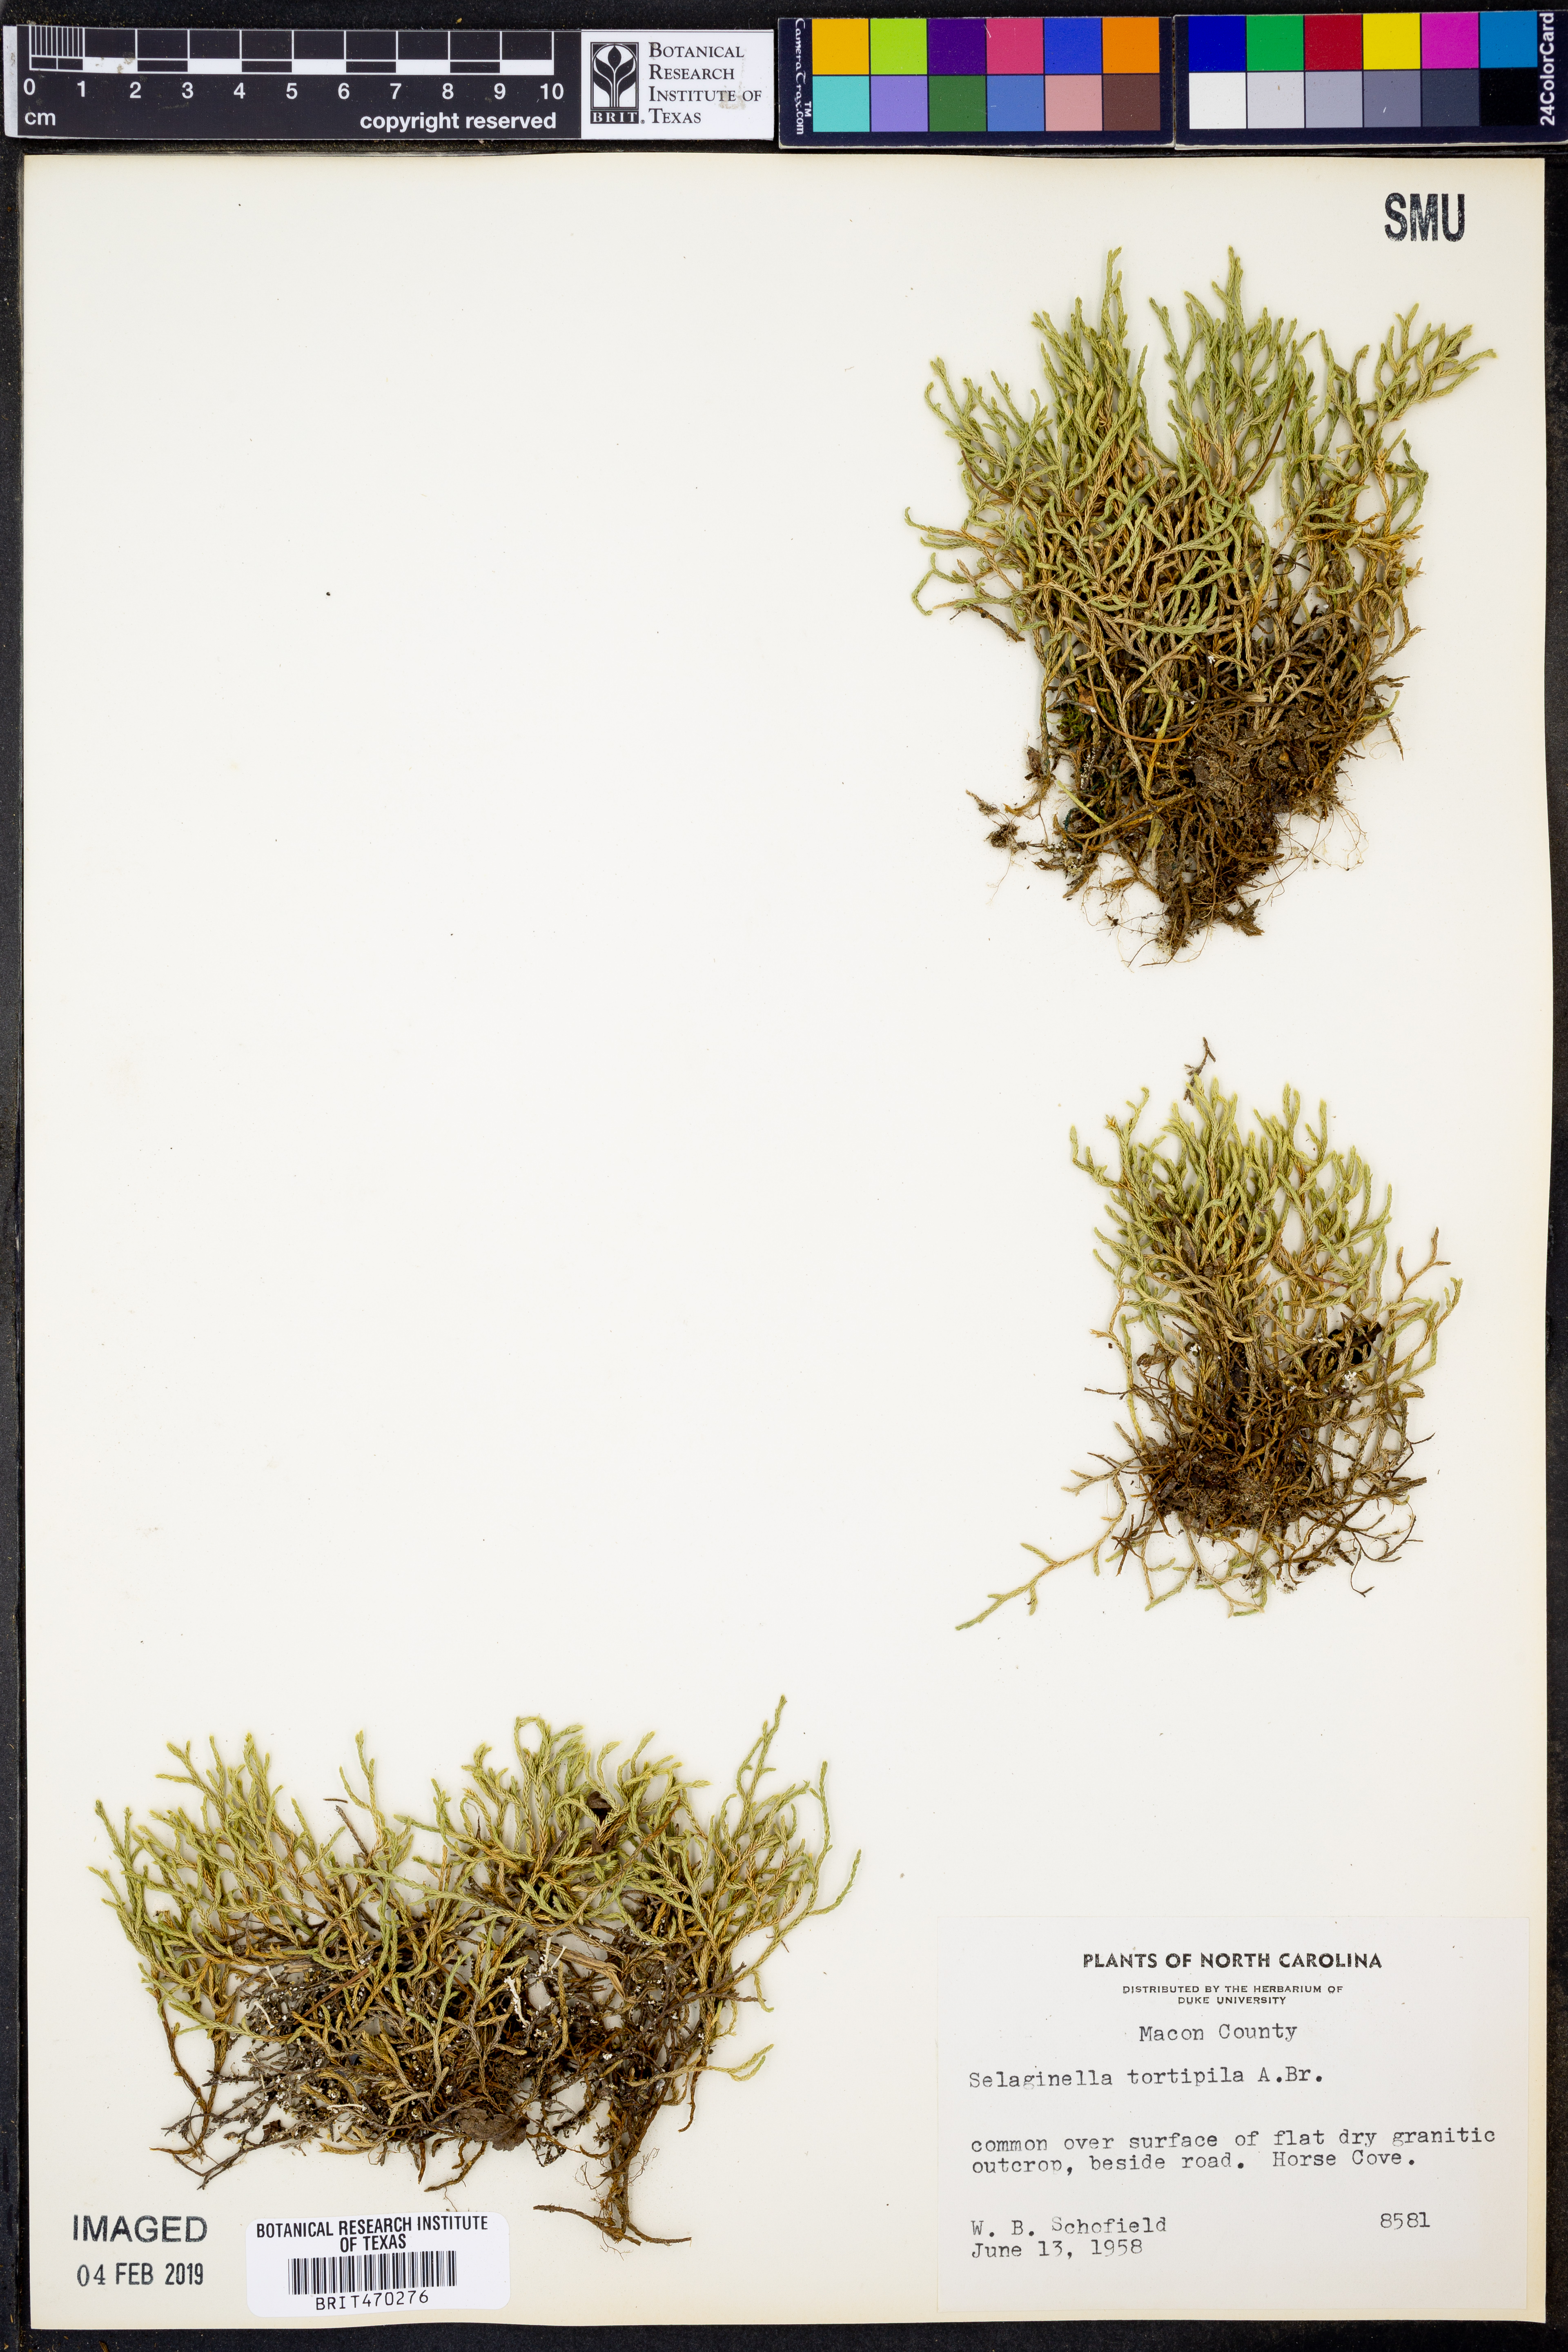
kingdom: Plantae
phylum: Tracheophyta
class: Lycopodiopsida
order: Selaginellales
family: Selaginellaceae
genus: Selaginella
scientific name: Selaginella tortipila
